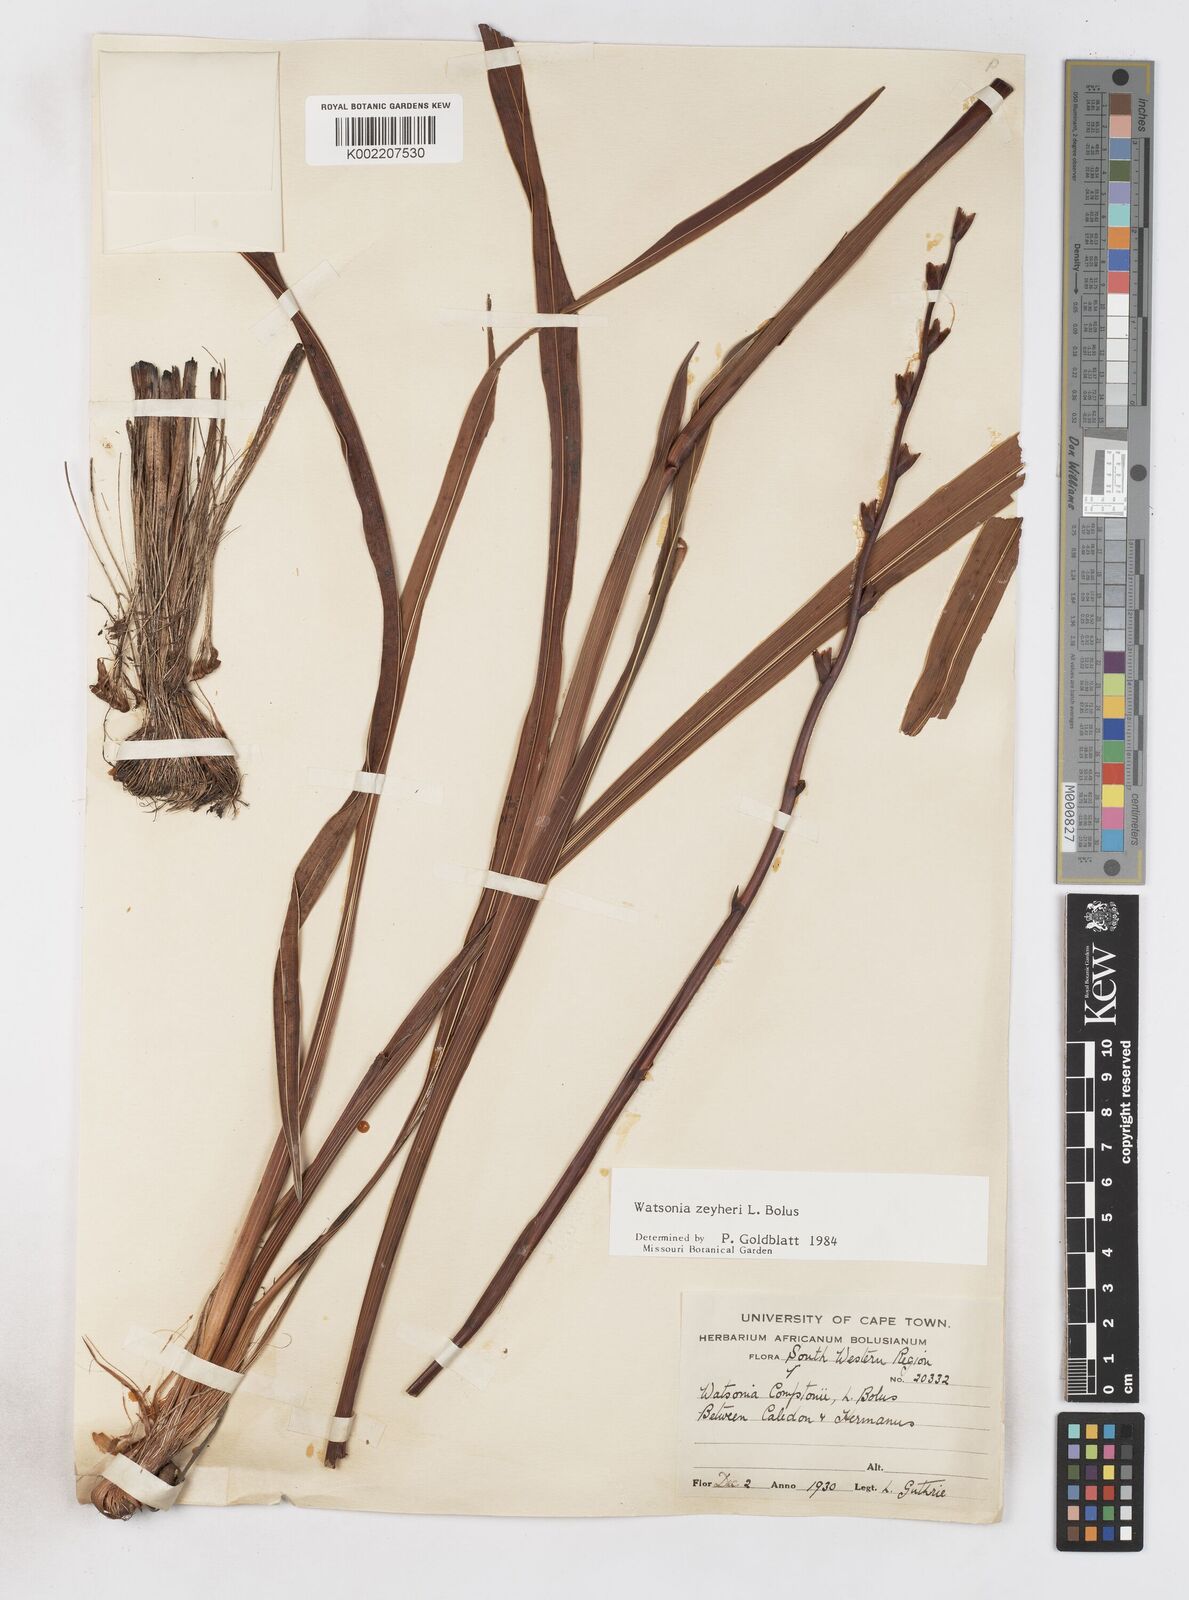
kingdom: Plantae
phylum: Tracheophyta
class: Liliopsida
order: Asparagales
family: Iridaceae
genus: Watsonia
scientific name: Watsonia zeyheri
